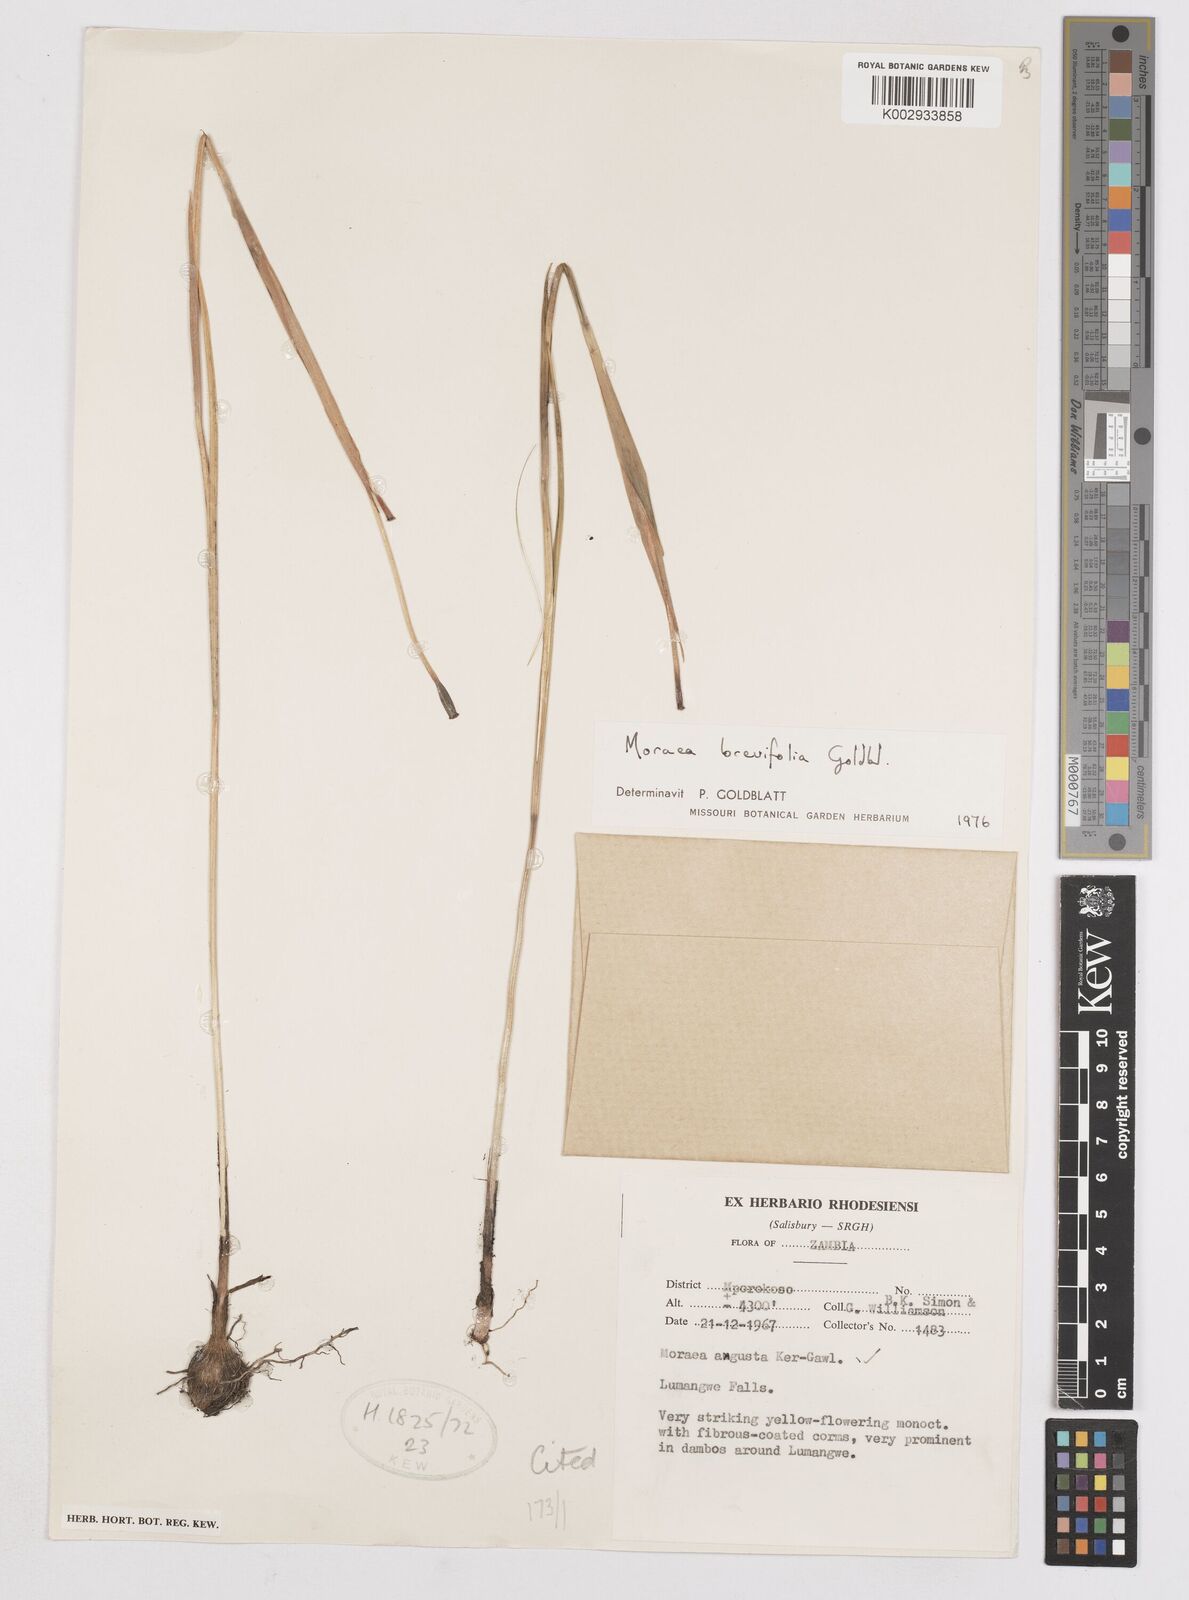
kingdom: Plantae
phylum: Tracheophyta
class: Liliopsida
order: Asparagales
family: Iridaceae
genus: Moraea
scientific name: Moraea brevifolia
